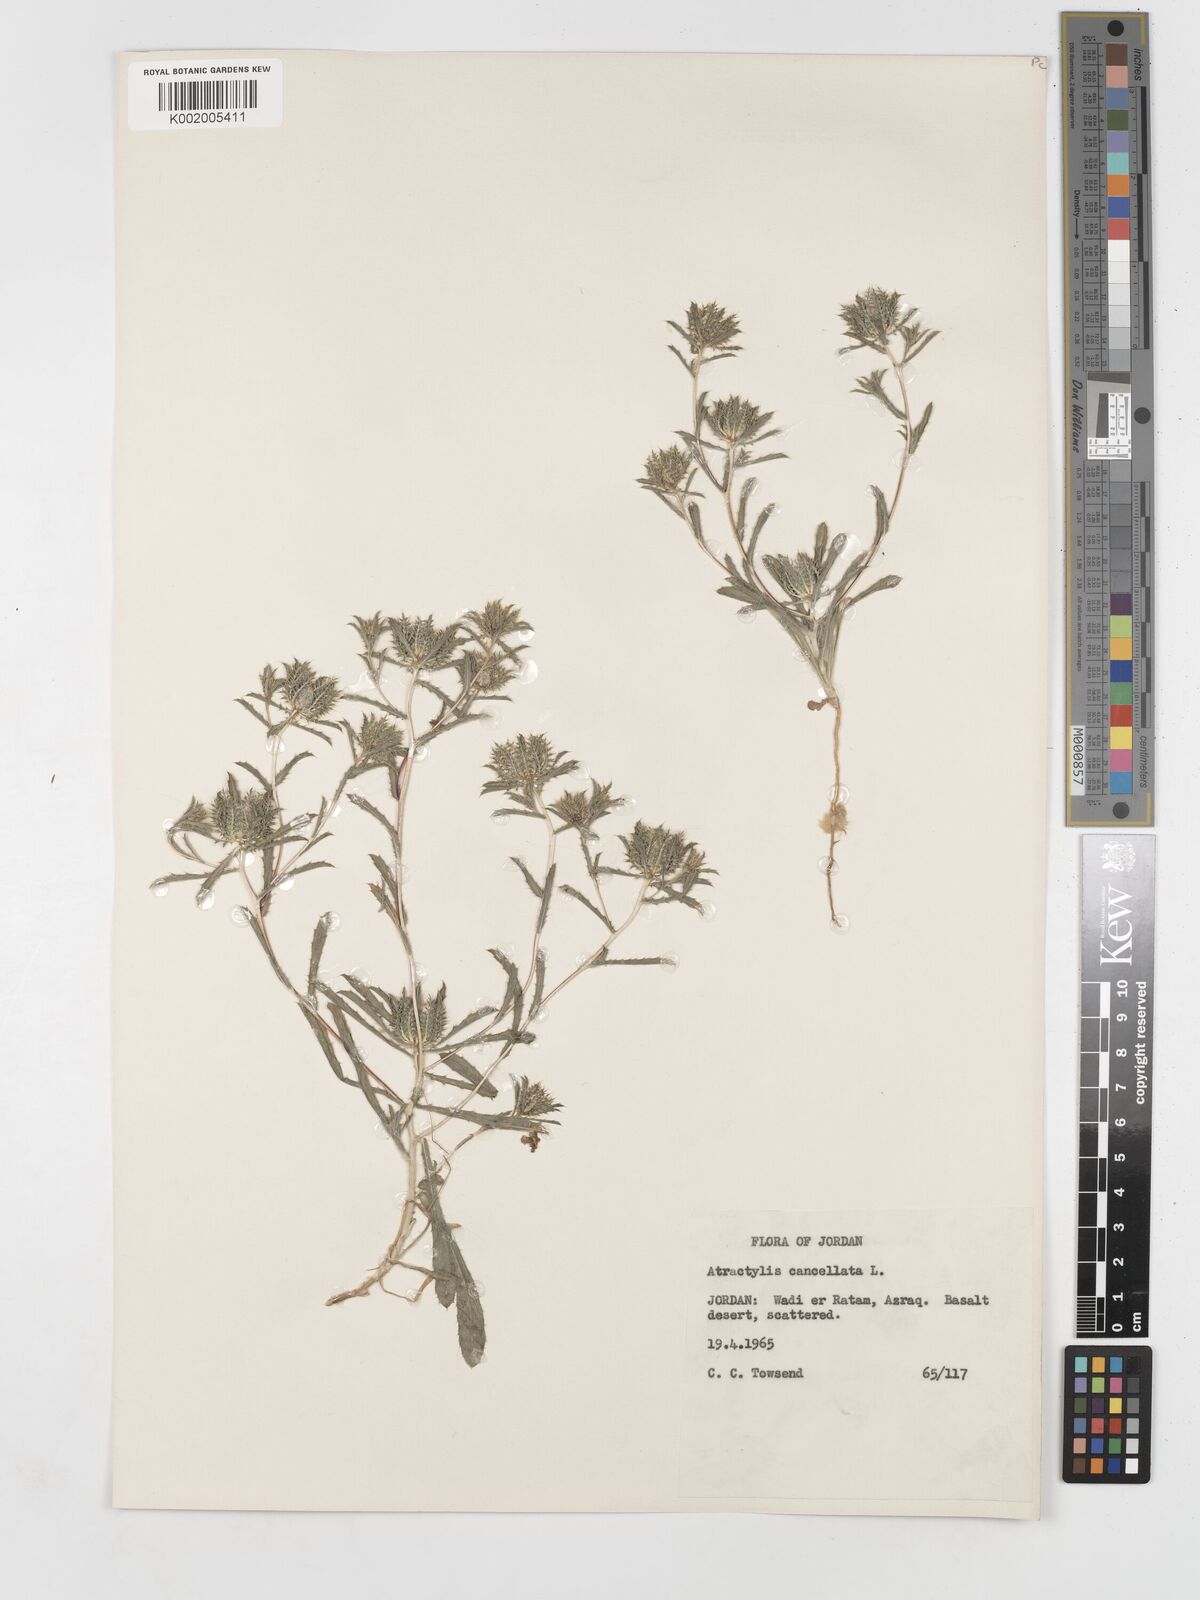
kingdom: Plantae
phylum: Tracheophyta
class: Magnoliopsida
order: Asterales
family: Asteraceae
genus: Atractylis
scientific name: Atractylis cancellata
